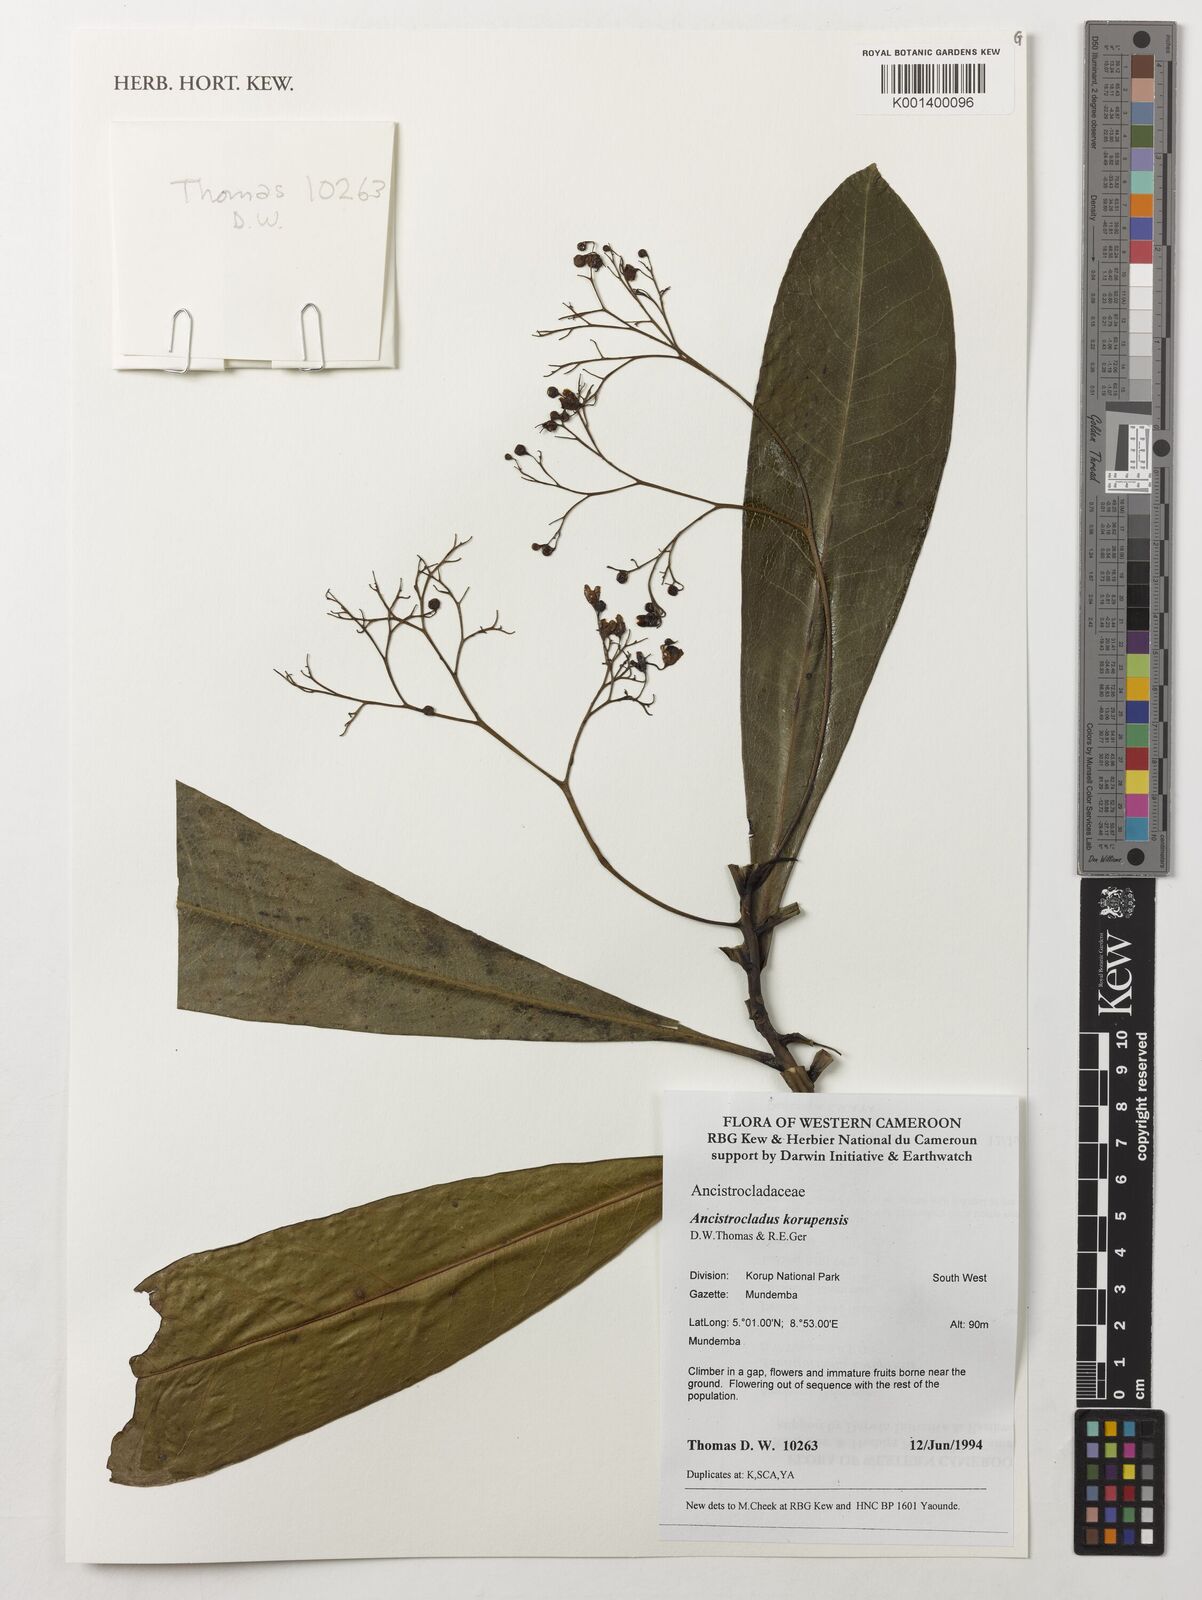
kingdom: Plantae
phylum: Tracheophyta
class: Magnoliopsida
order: Caryophyllales
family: Ancistrocladaceae
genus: Ancistrocladus
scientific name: Ancistrocladus korupensis
